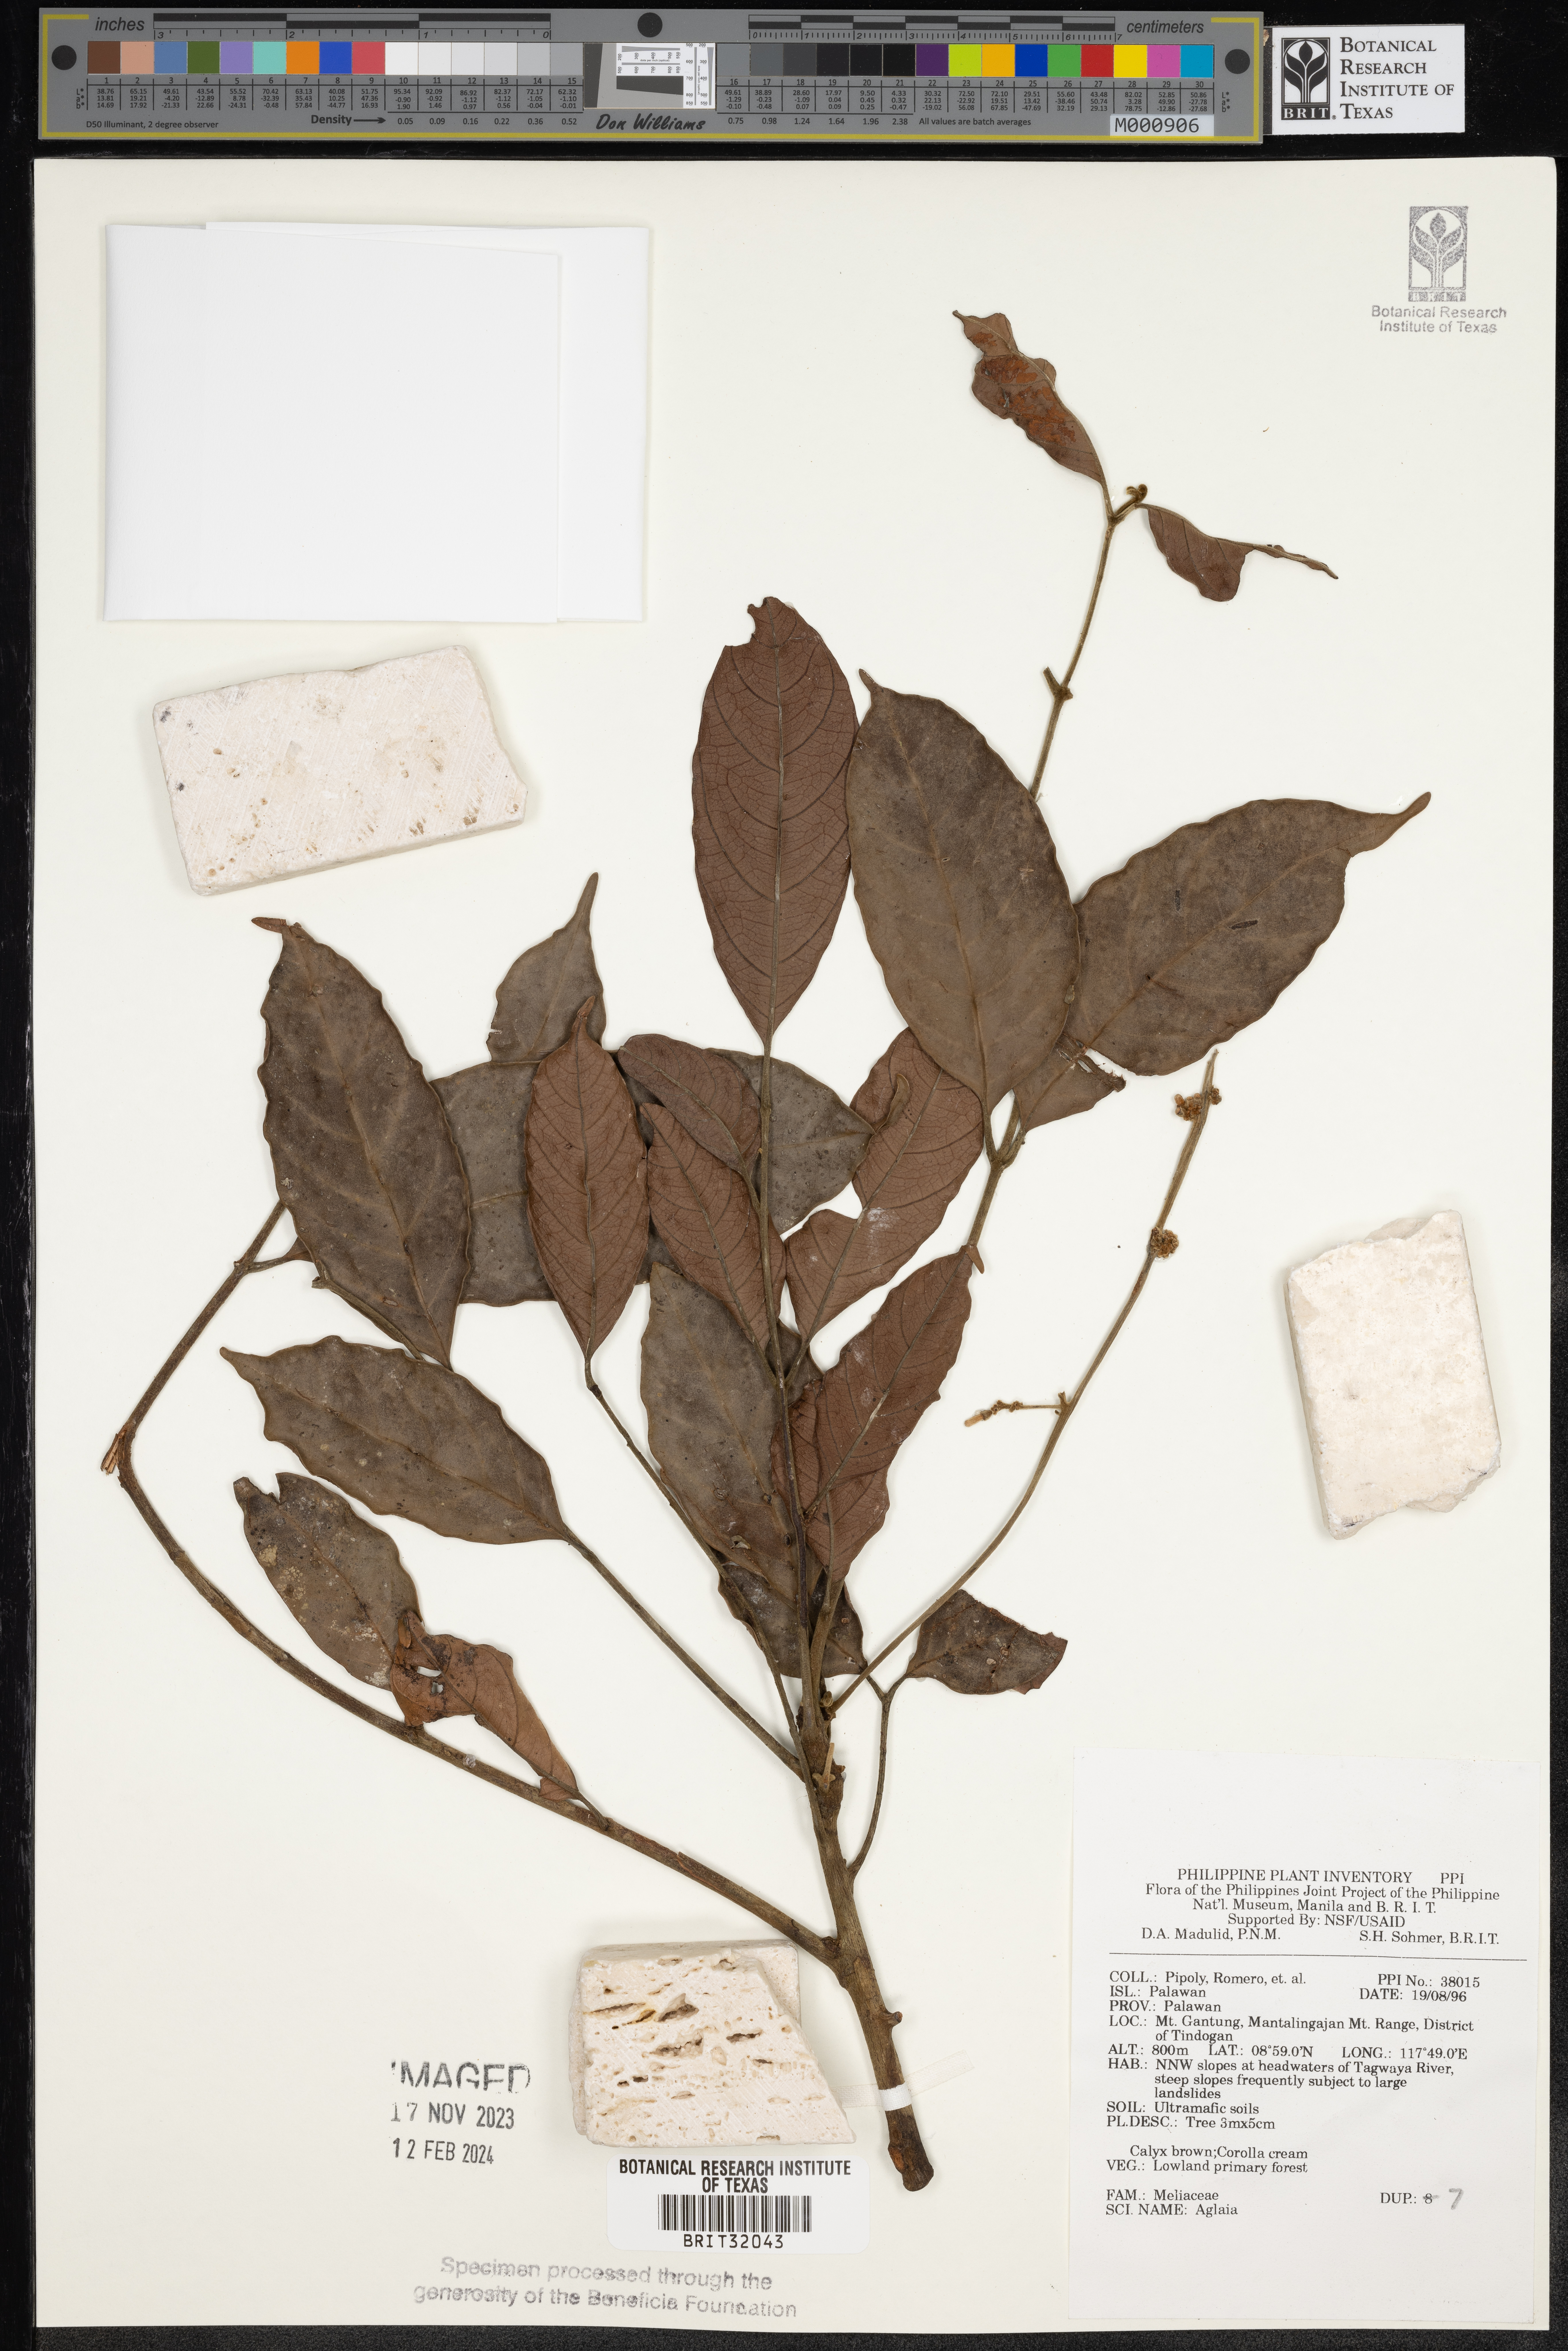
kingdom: Plantae
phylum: Tracheophyta
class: Magnoliopsida
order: Sapindales
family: Meliaceae
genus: Aglaia
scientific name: Aglaia
